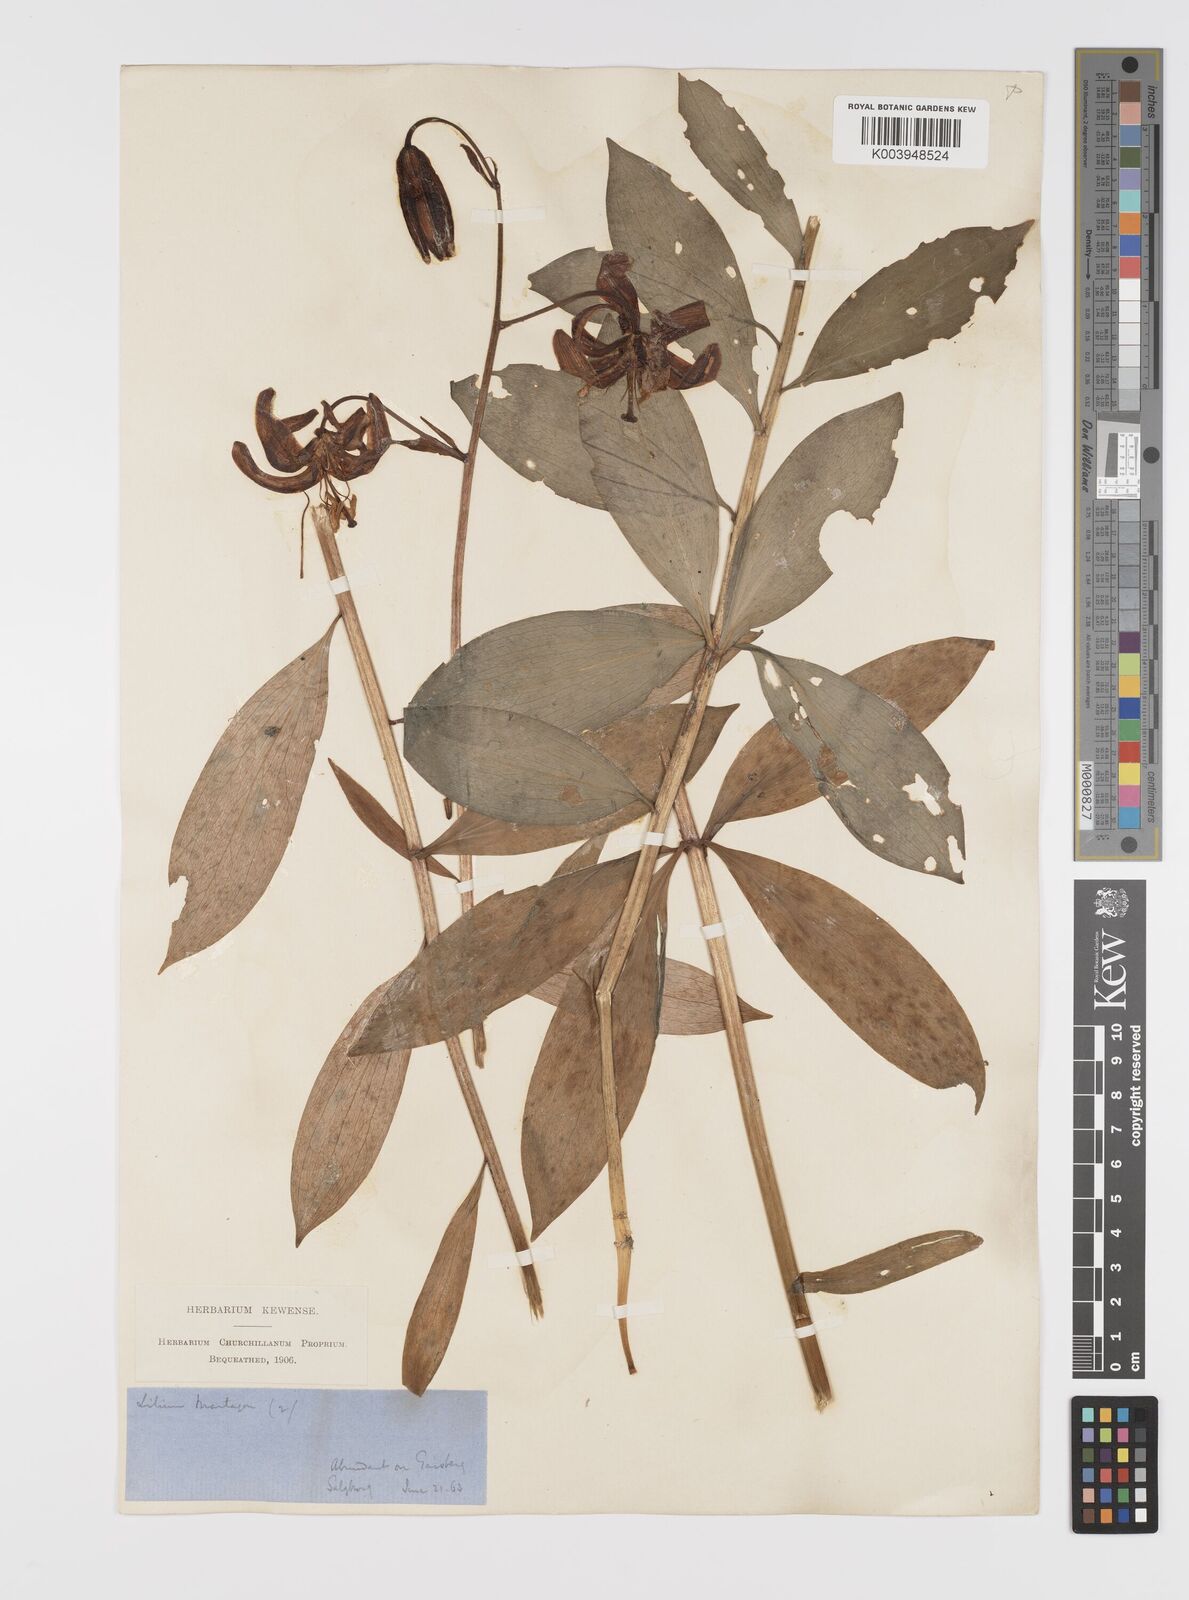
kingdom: Plantae
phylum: Tracheophyta
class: Liliopsida
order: Liliales
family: Liliaceae
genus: Lilium
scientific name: Lilium martagon
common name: Martagon lily
